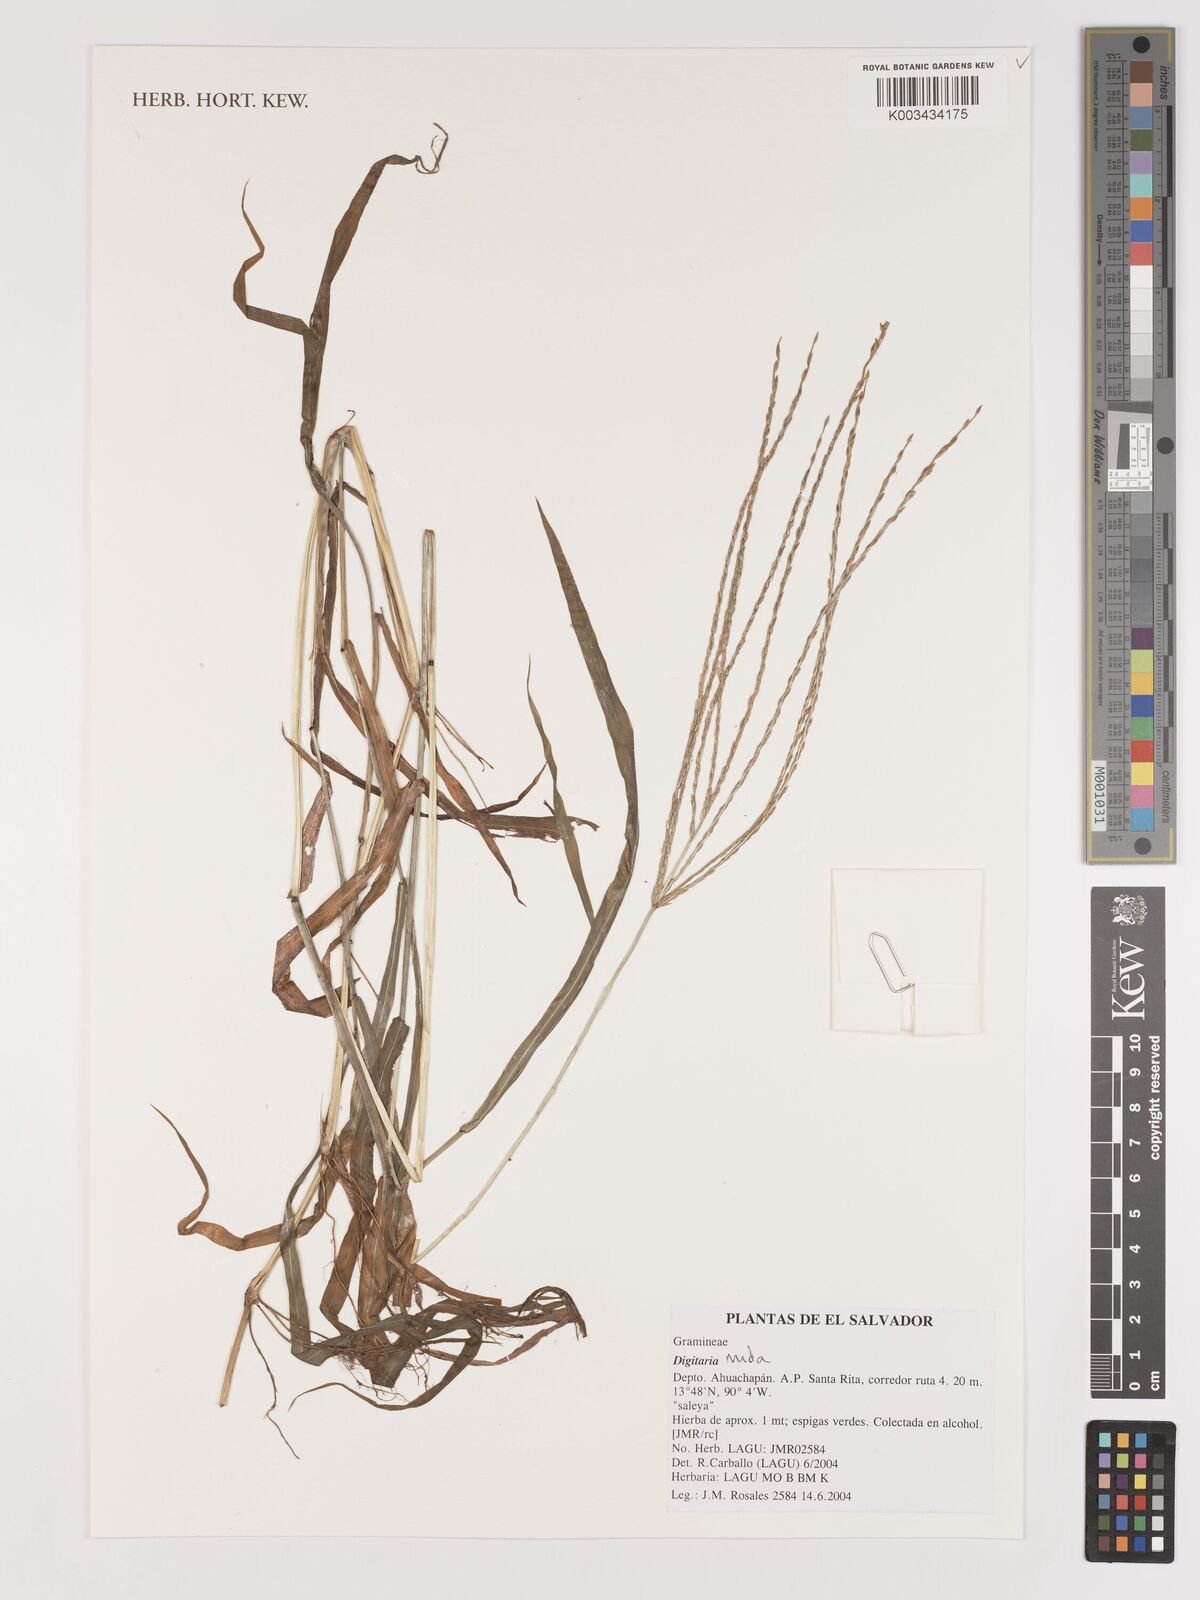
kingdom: Plantae
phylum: Tracheophyta
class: Liliopsida
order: Poales
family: Poaceae
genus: Digitaria
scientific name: Digitaria nuda
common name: Naked crabgrass
